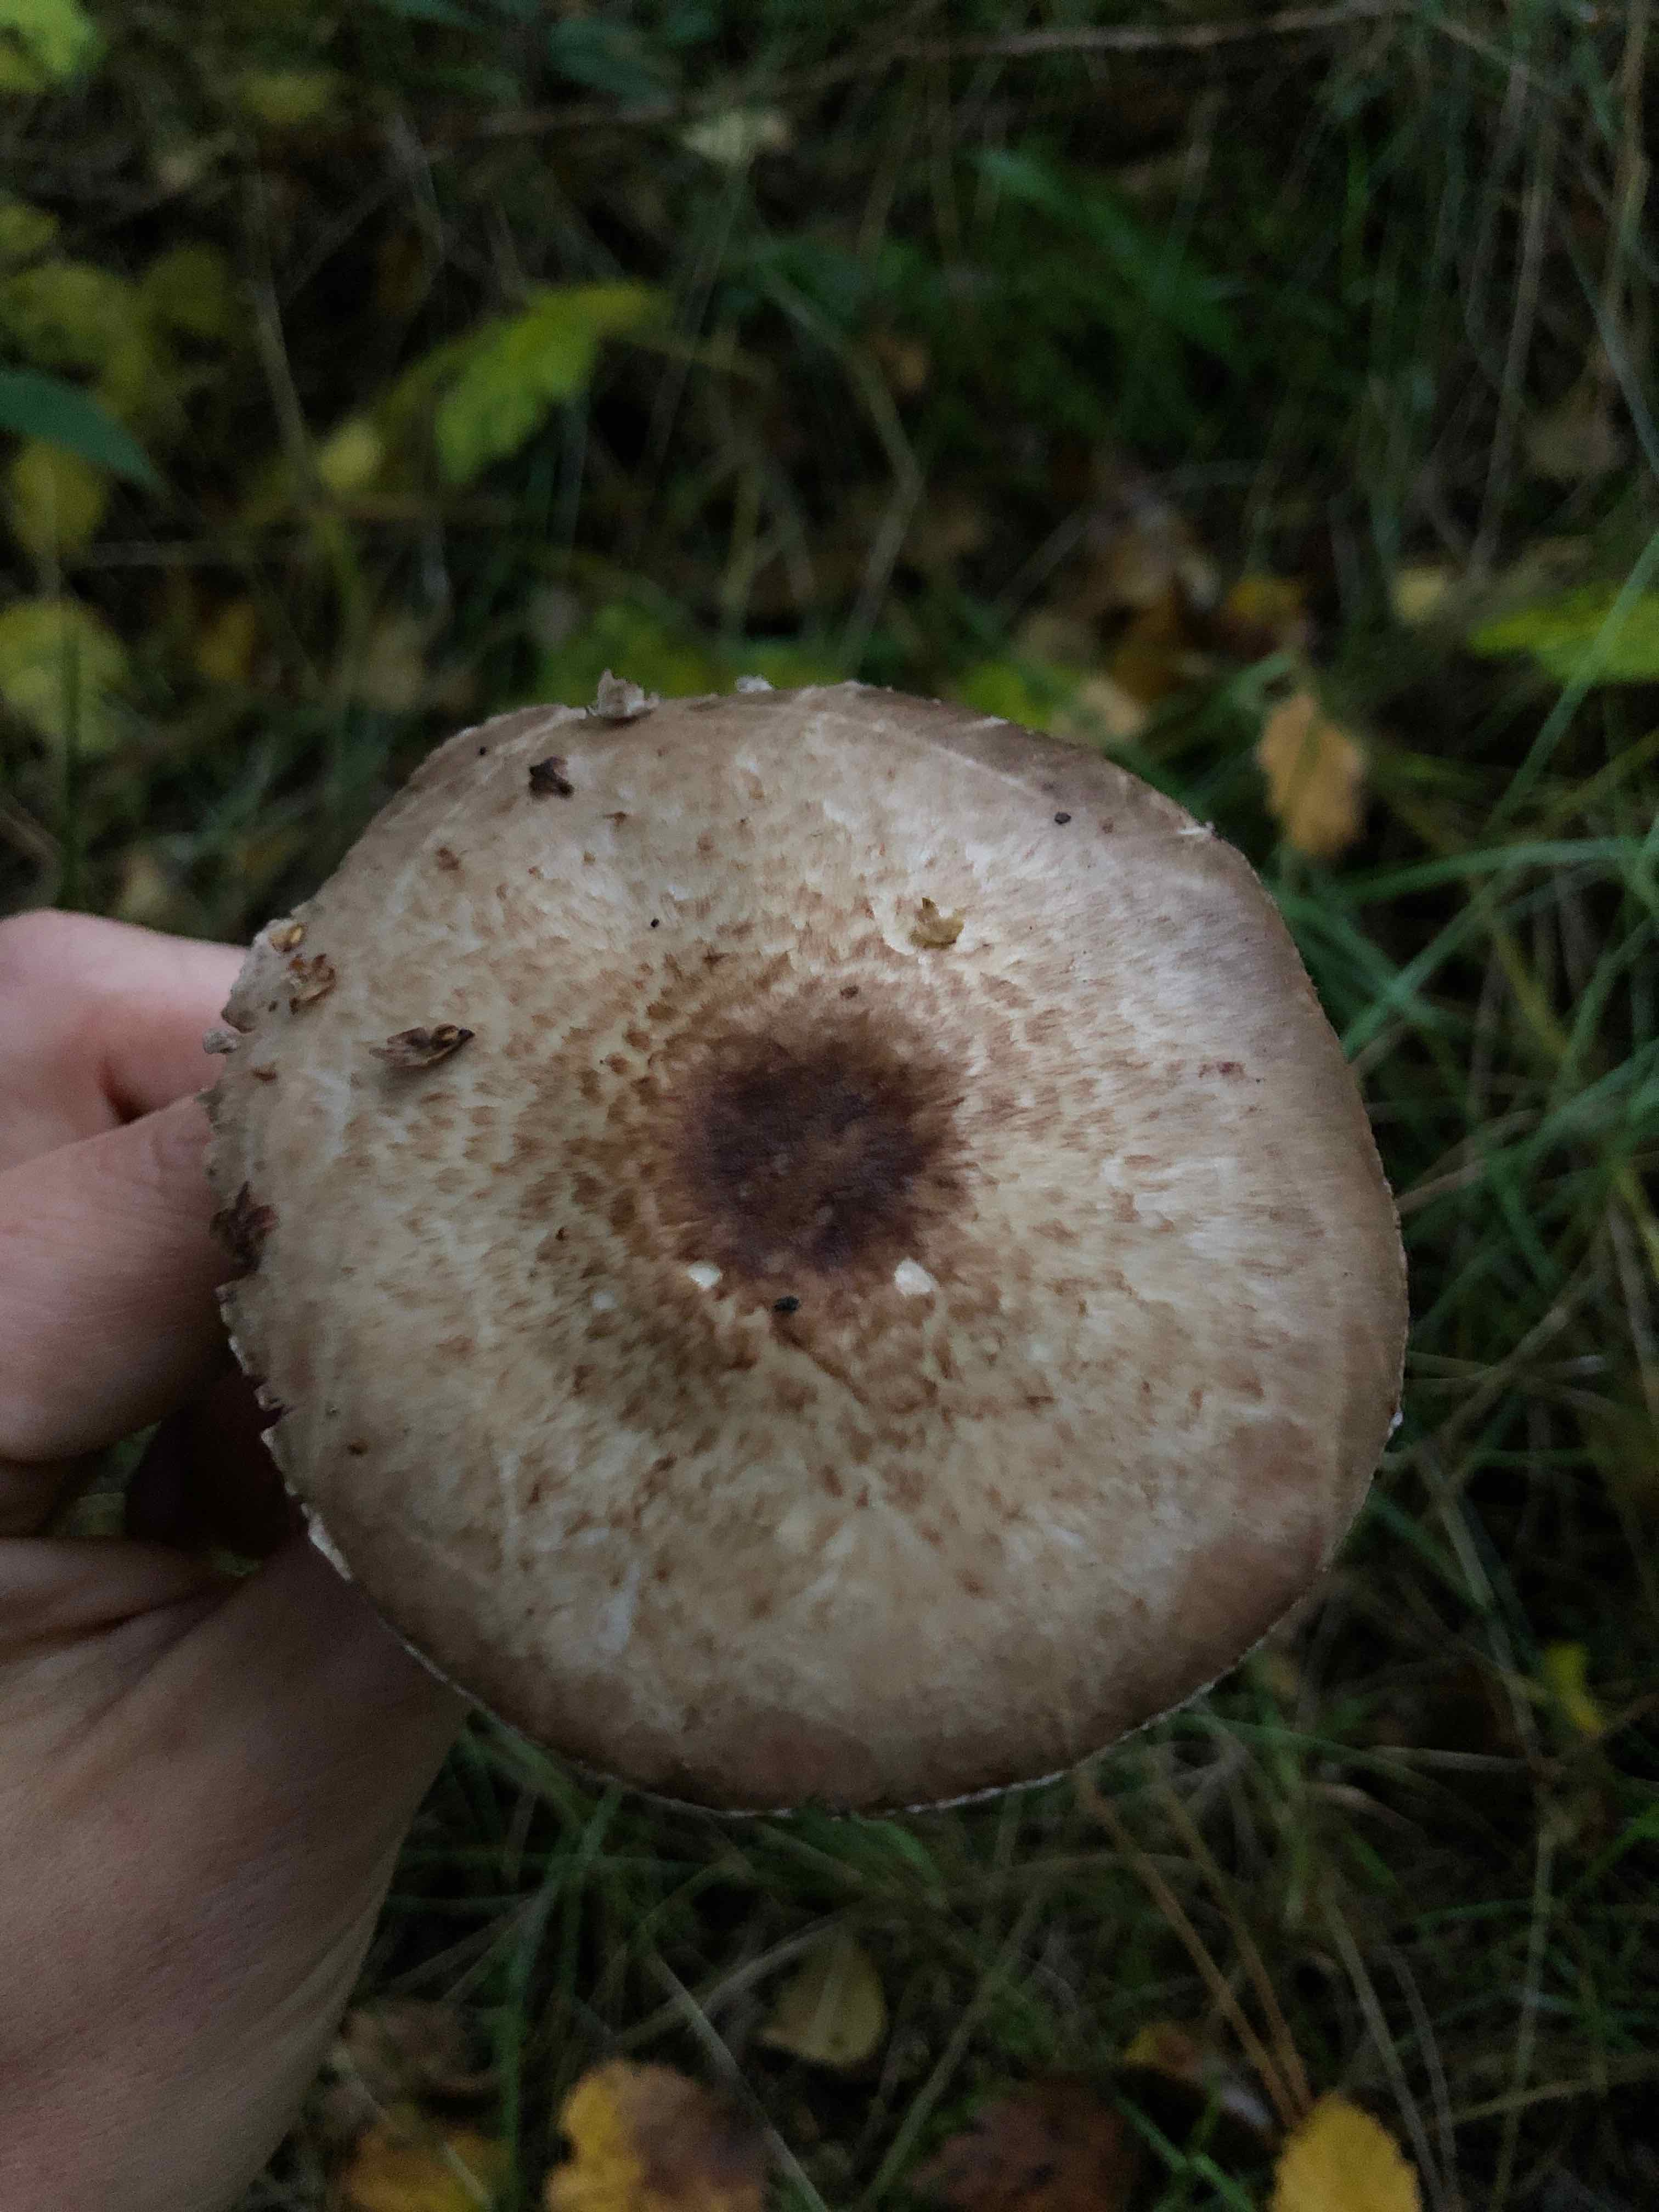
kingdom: Fungi
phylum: Basidiomycota
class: Agaricomycetes
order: Agaricales
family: Agaricaceae
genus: Agaricus
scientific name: Agaricus impudicus
